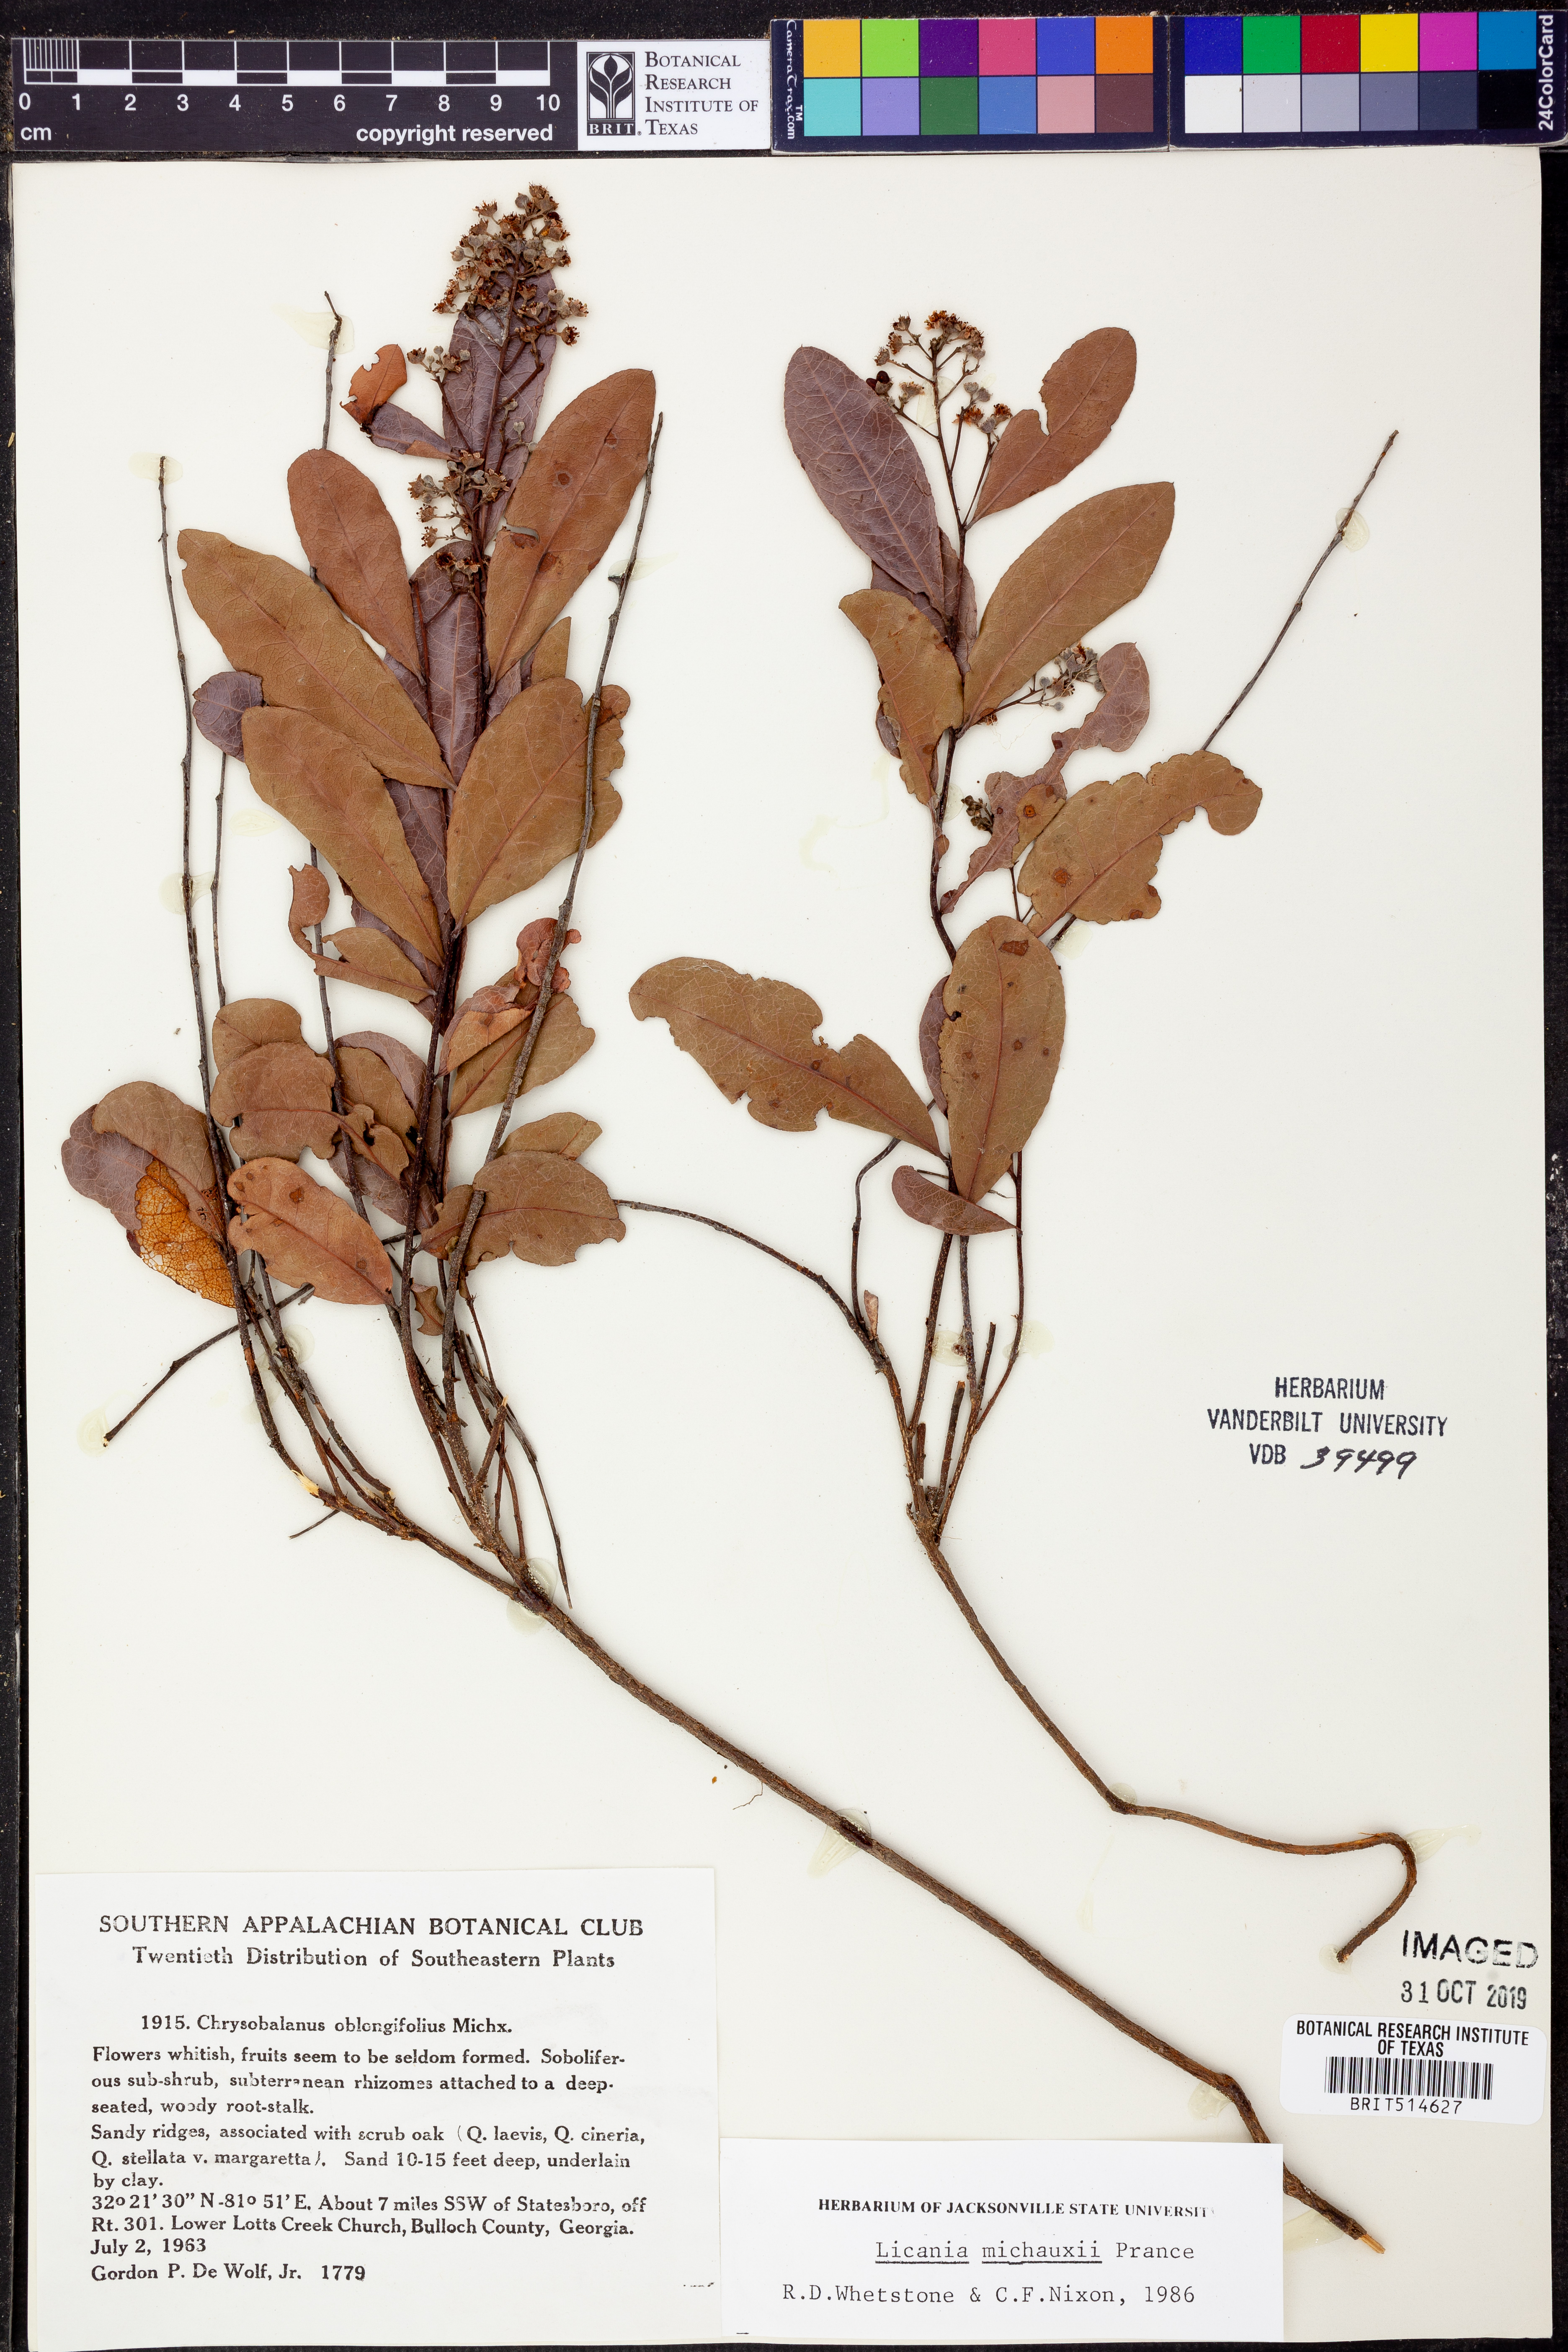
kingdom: Plantae
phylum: Tracheophyta
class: Magnoliopsida
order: Malpighiales
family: Chrysobalanaceae
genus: Geobalanus
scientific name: Geobalanus oblongifolius
